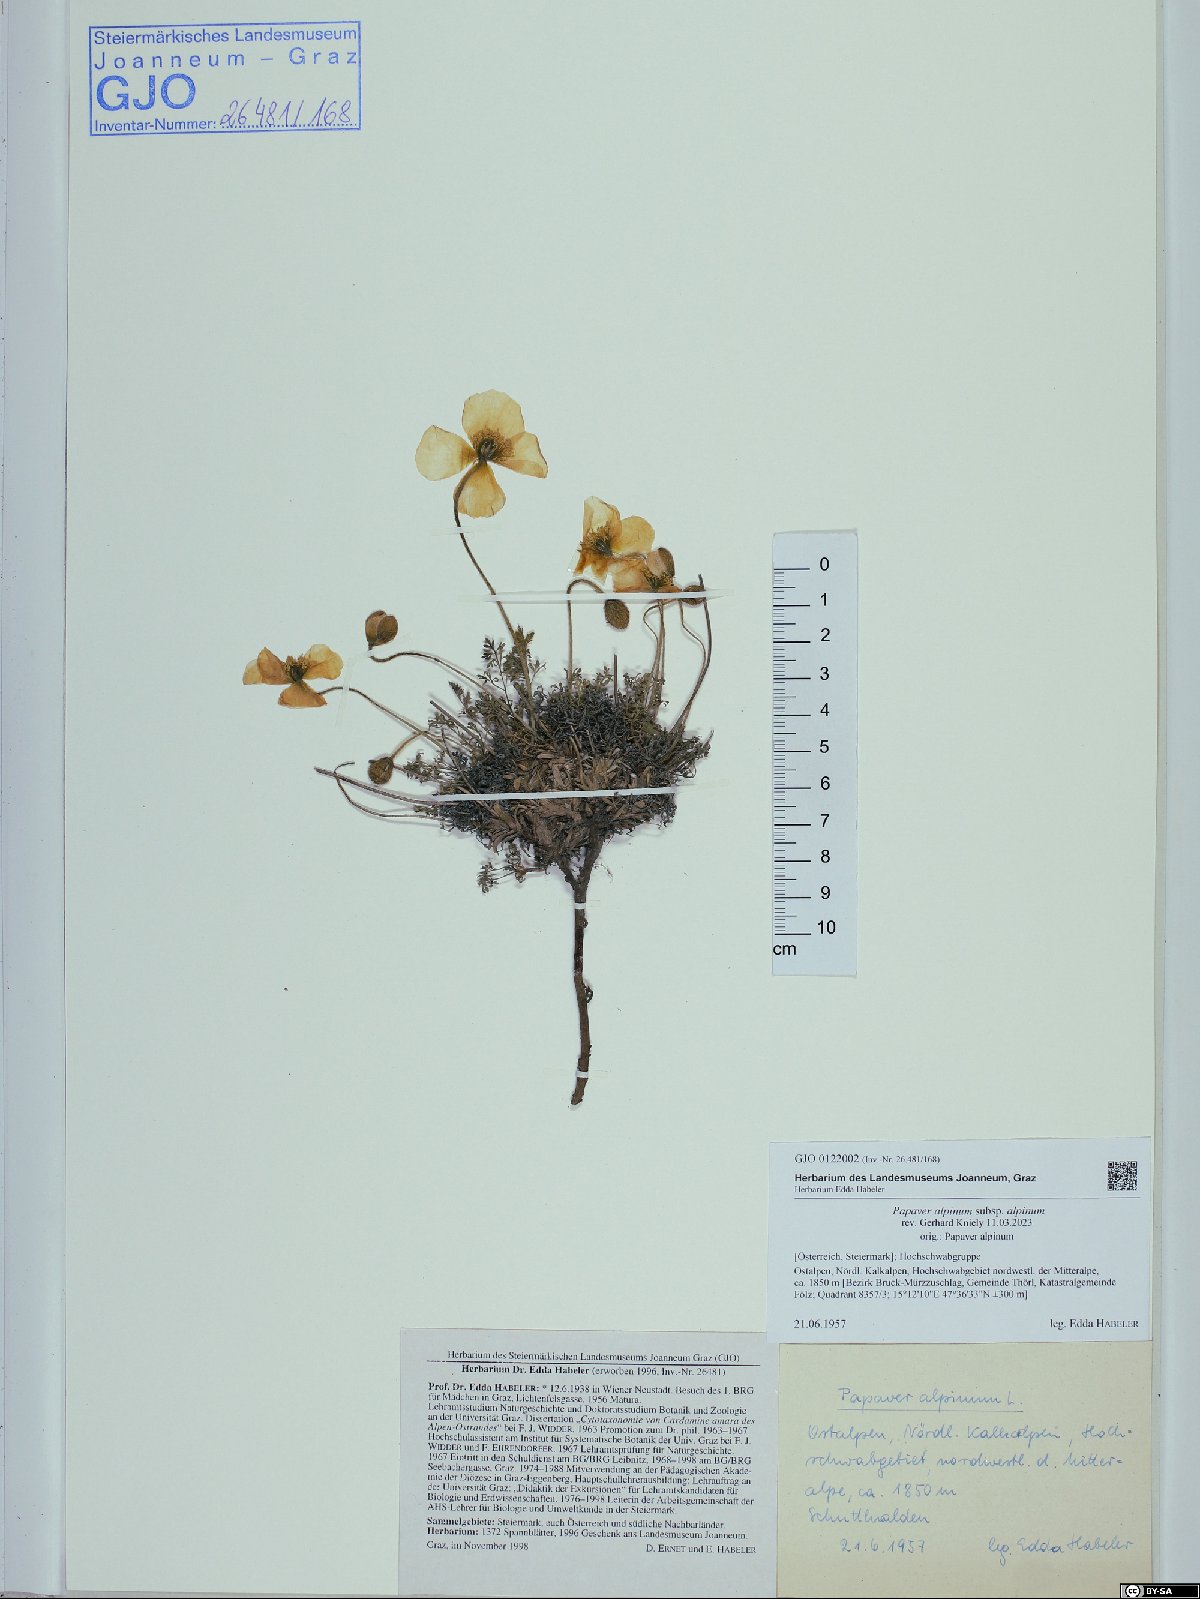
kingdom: Plantae
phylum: Tracheophyta
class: Magnoliopsida
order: Ranunculales
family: Papaveraceae
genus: Papaver
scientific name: Papaver alpinum
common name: Austrian poppy
